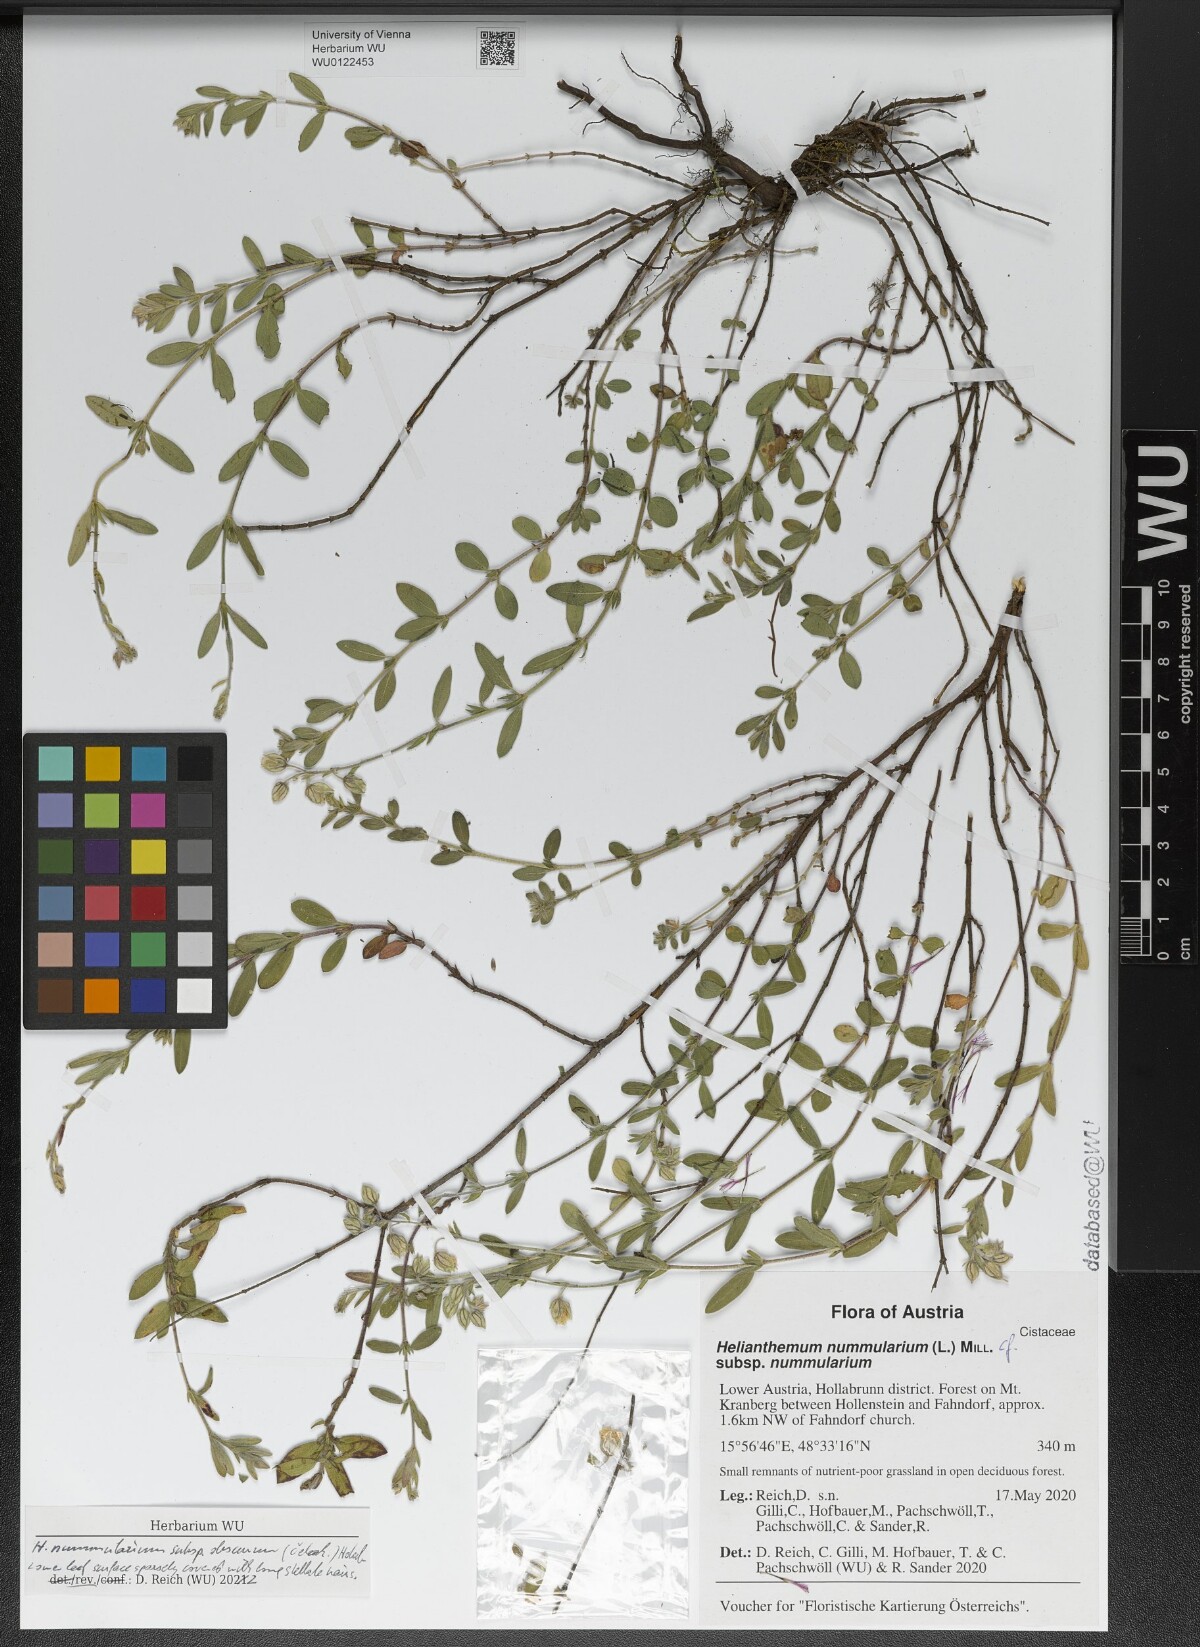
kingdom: Plantae
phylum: Tracheophyta
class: Magnoliopsida
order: Malvales
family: Cistaceae
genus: Helianthemum
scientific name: Helianthemum nummularium
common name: Common rock-rose
